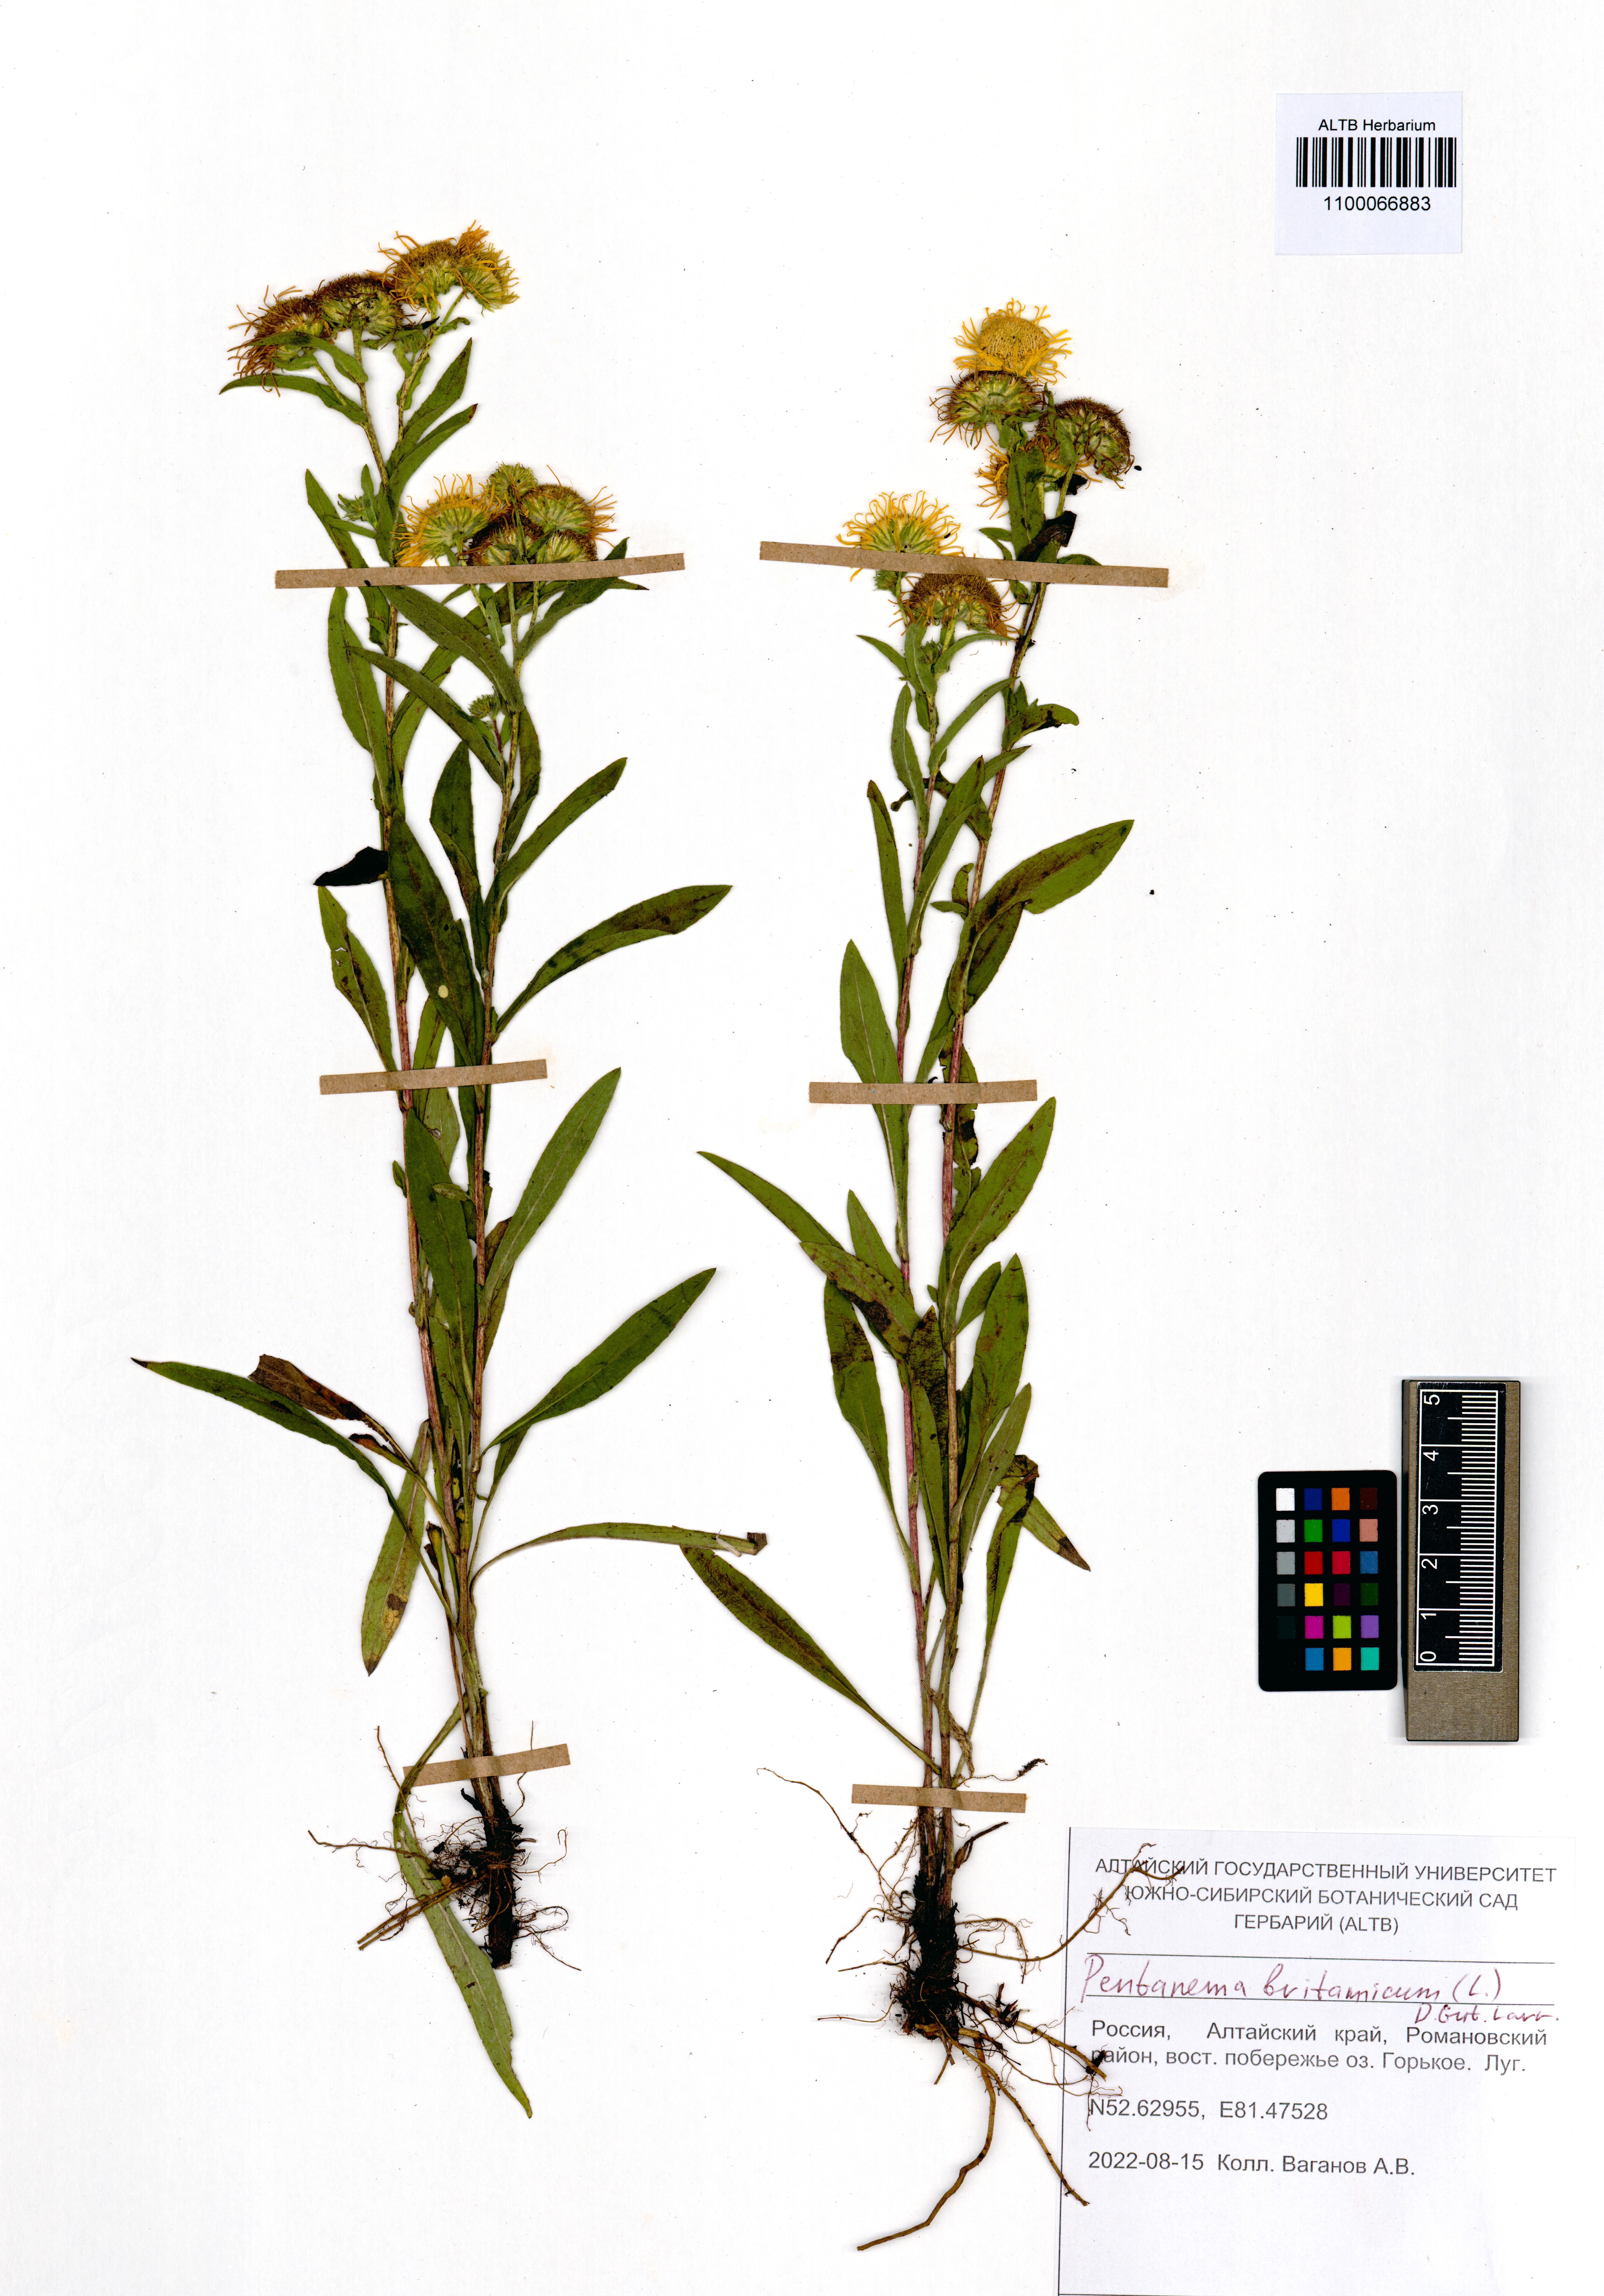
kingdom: Plantae
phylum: Tracheophyta
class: Magnoliopsida
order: Asterales
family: Asteraceae
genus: Pentanema
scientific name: Pentanema britannicum
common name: British elecampane
